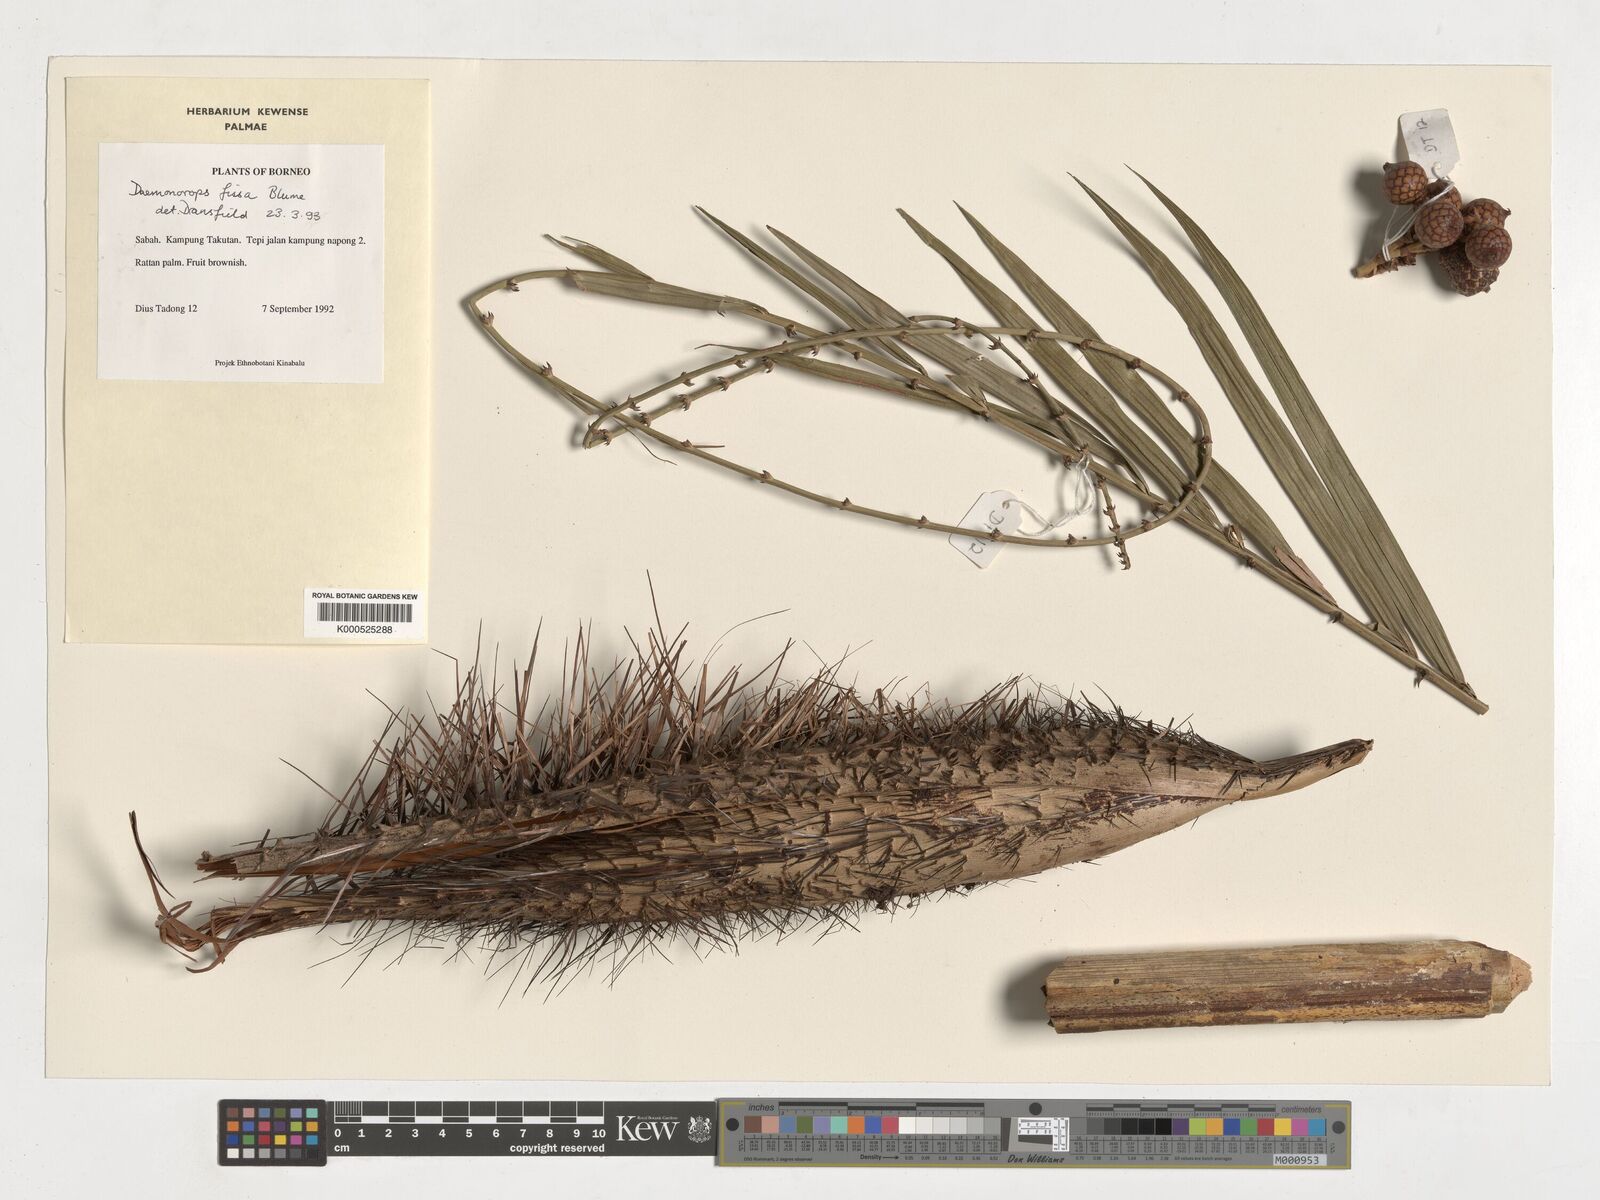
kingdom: Plantae
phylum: Tracheophyta
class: Liliopsida
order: Arecales
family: Arecaceae
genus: Calamus
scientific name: Calamus melanochaetes
